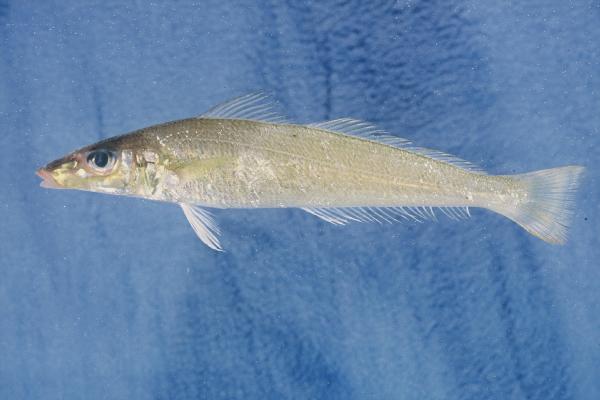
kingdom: Animalia
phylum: Chordata
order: Perciformes
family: Sillaginidae
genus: Sillago
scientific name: Sillago sihama
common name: Silver sillago
